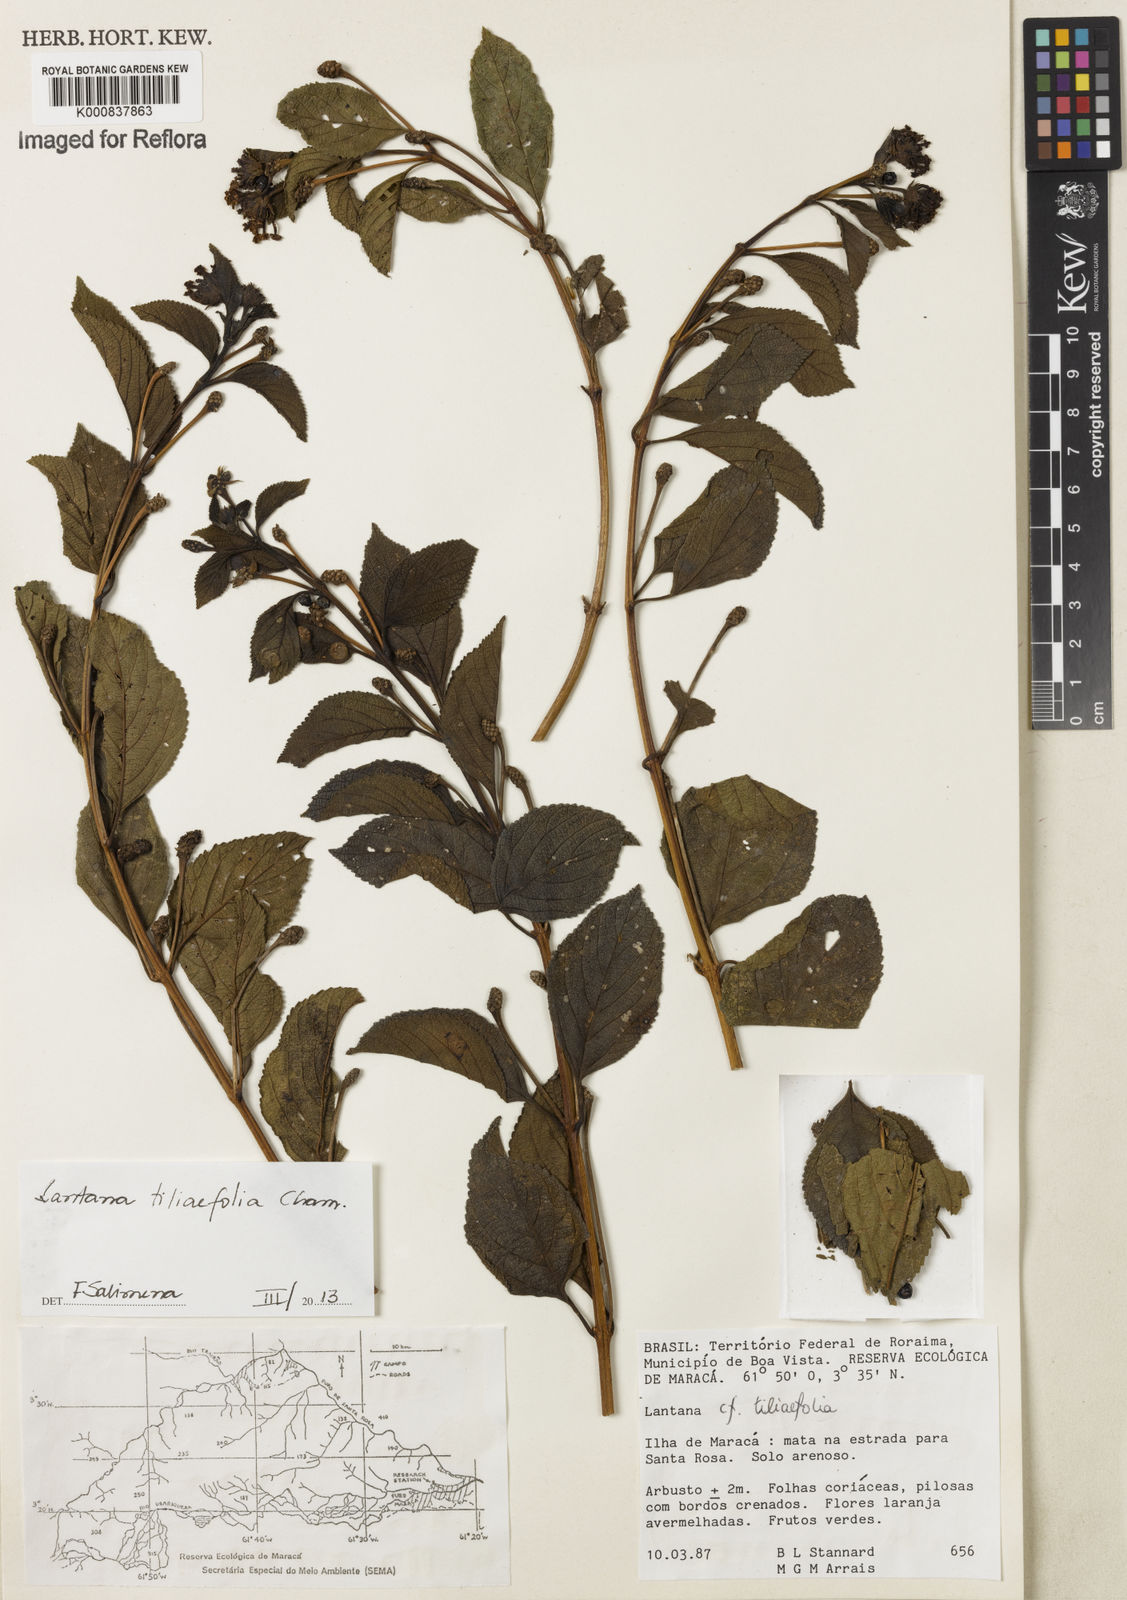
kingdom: Plantae
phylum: Tracheophyta
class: Magnoliopsida
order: Lamiales
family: Verbenaceae
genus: Lantana
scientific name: Lantana
